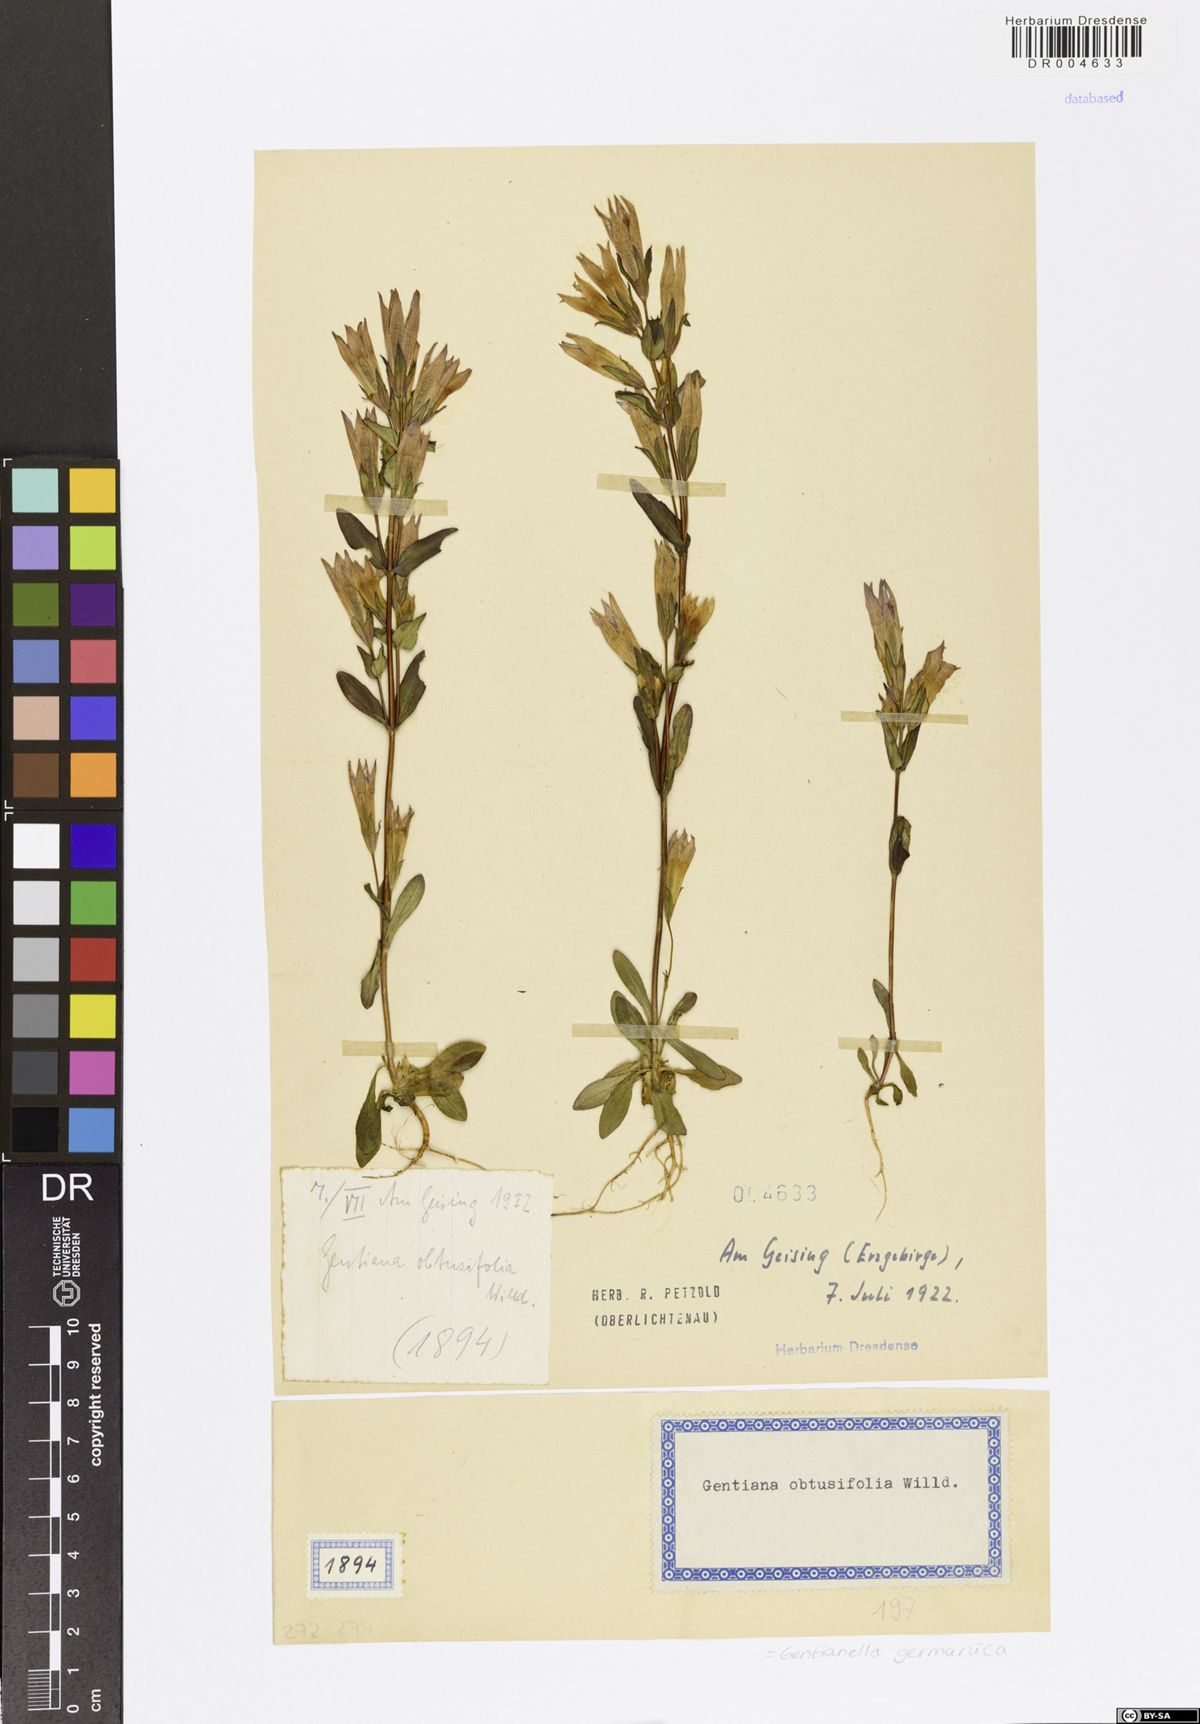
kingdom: Plantae
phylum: Tracheophyta
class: Magnoliopsida
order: Gentianales
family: Gentianaceae
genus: Gentianella
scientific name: Gentianella praecox
